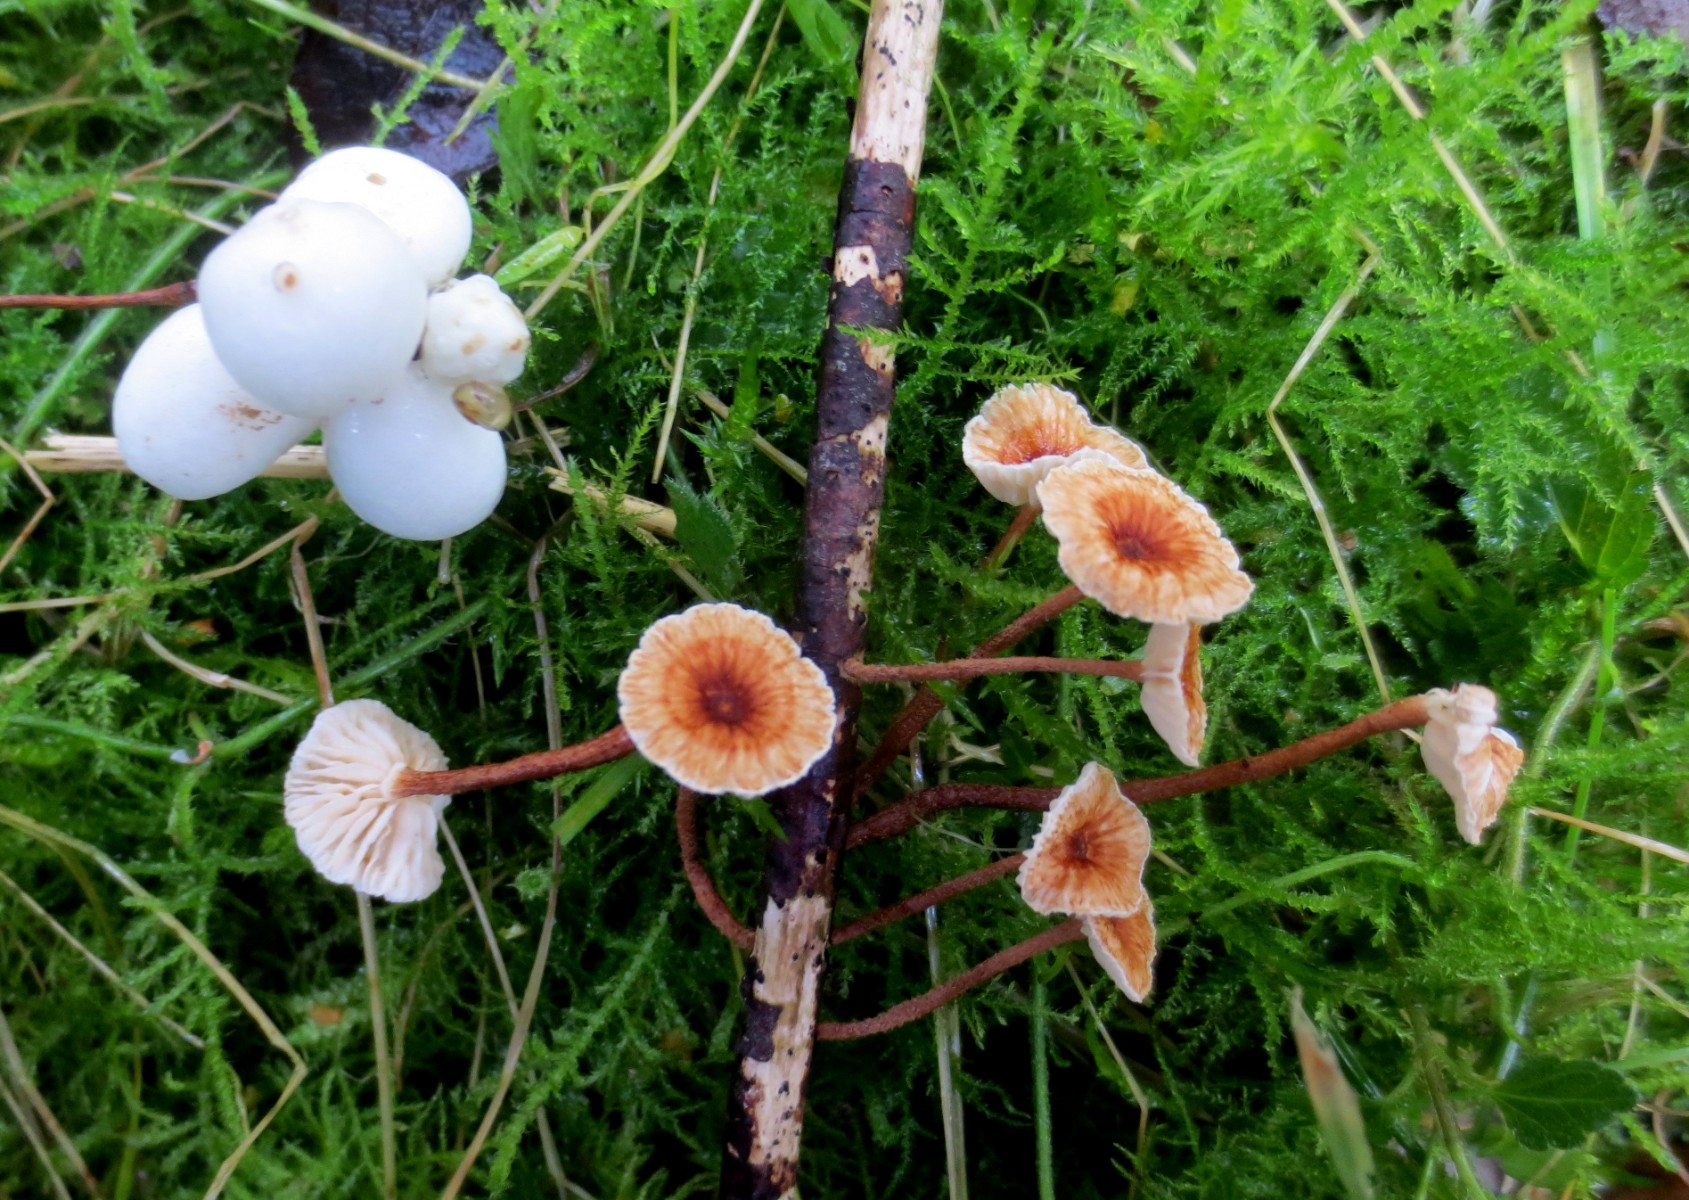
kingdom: Fungi
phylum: Basidiomycota
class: Agaricomycetes
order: Agaricales
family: Marasmiaceae
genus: Crinipellis
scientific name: Crinipellis scabella
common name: børstefod
